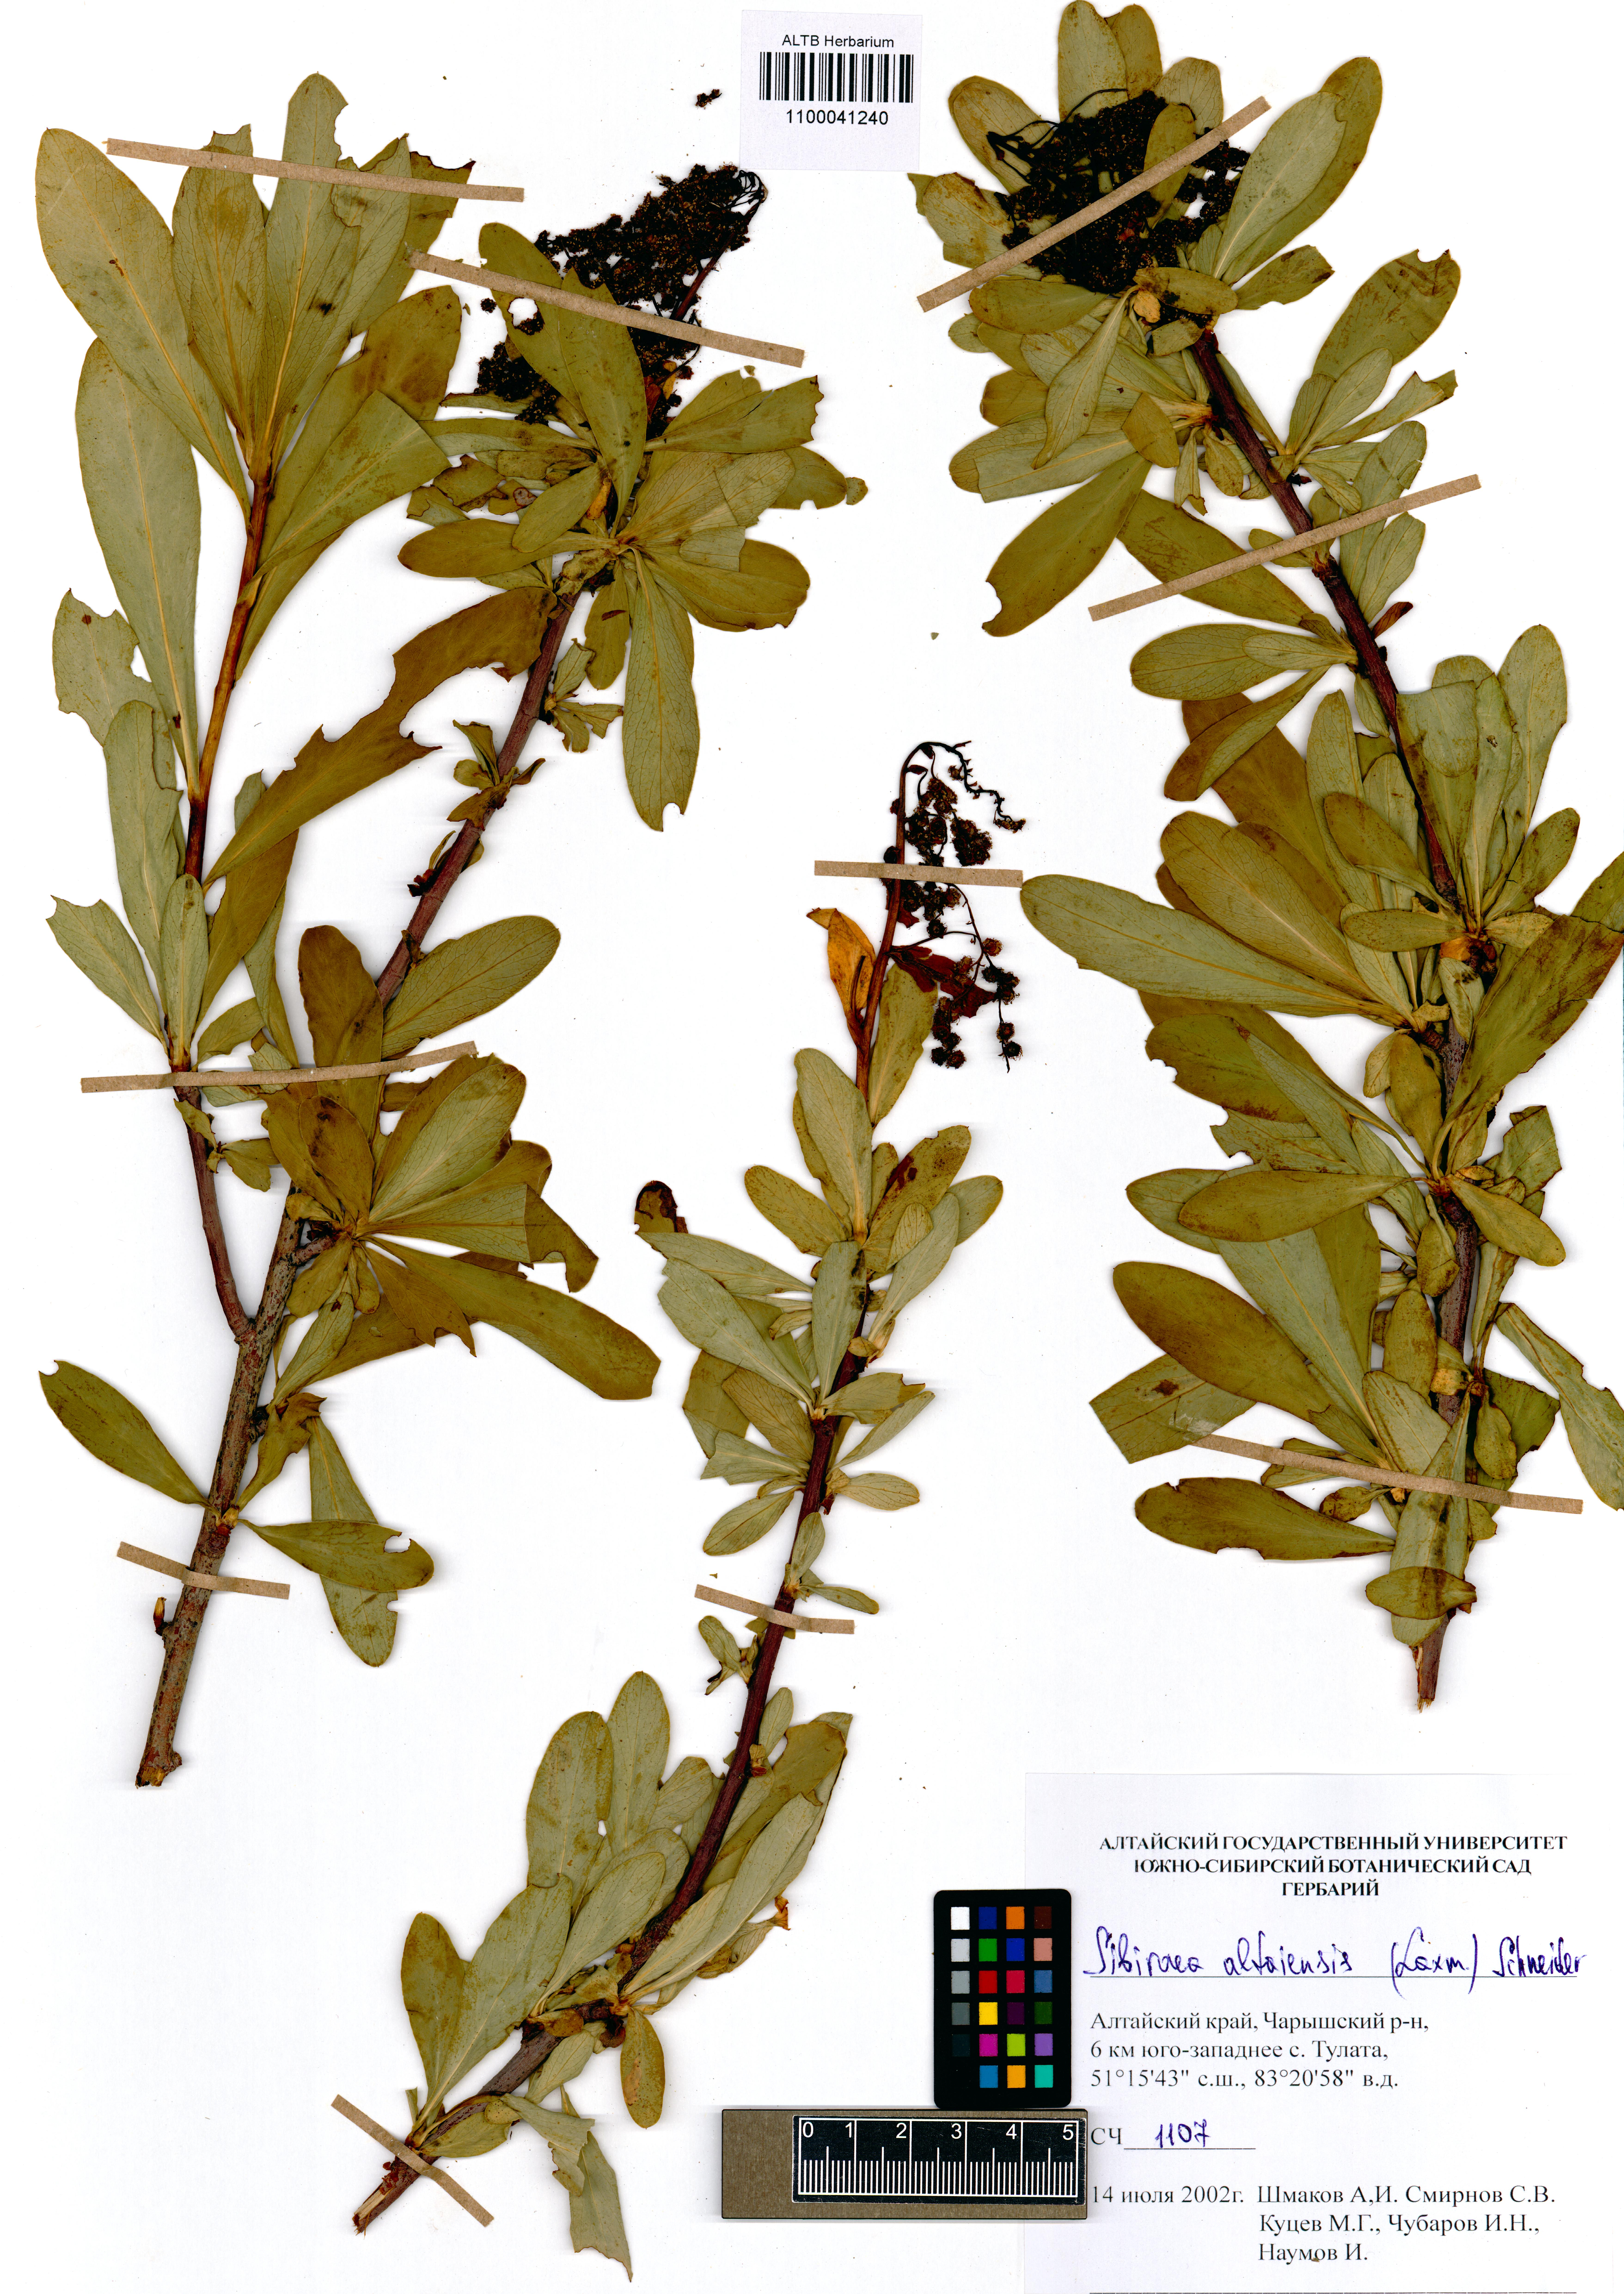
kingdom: Plantae
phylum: Tracheophyta
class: Magnoliopsida
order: Rosales
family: Rosaceae
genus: Sibiraea
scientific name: Sibiraea laevigata
